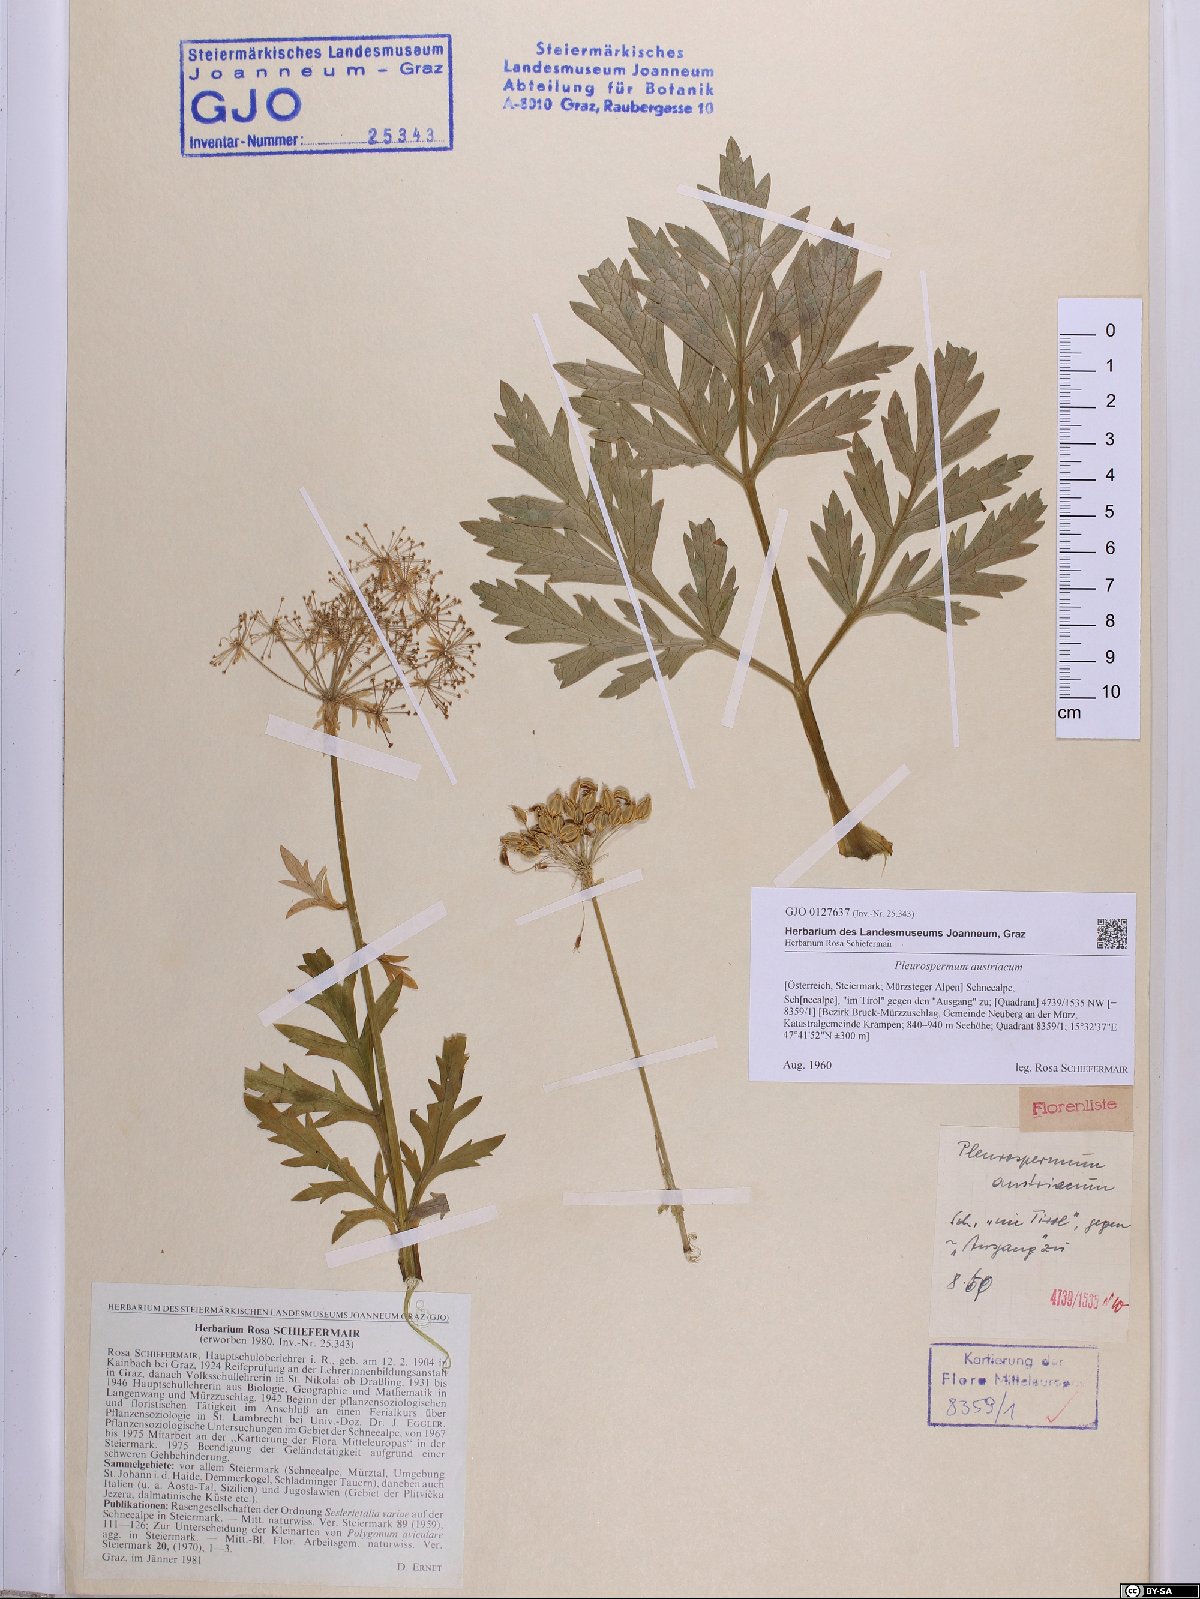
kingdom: Plantae
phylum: Tracheophyta
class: Magnoliopsida
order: Apiales
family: Apiaceae
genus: Pleurospermum
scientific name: Pleurospermum austriacum
